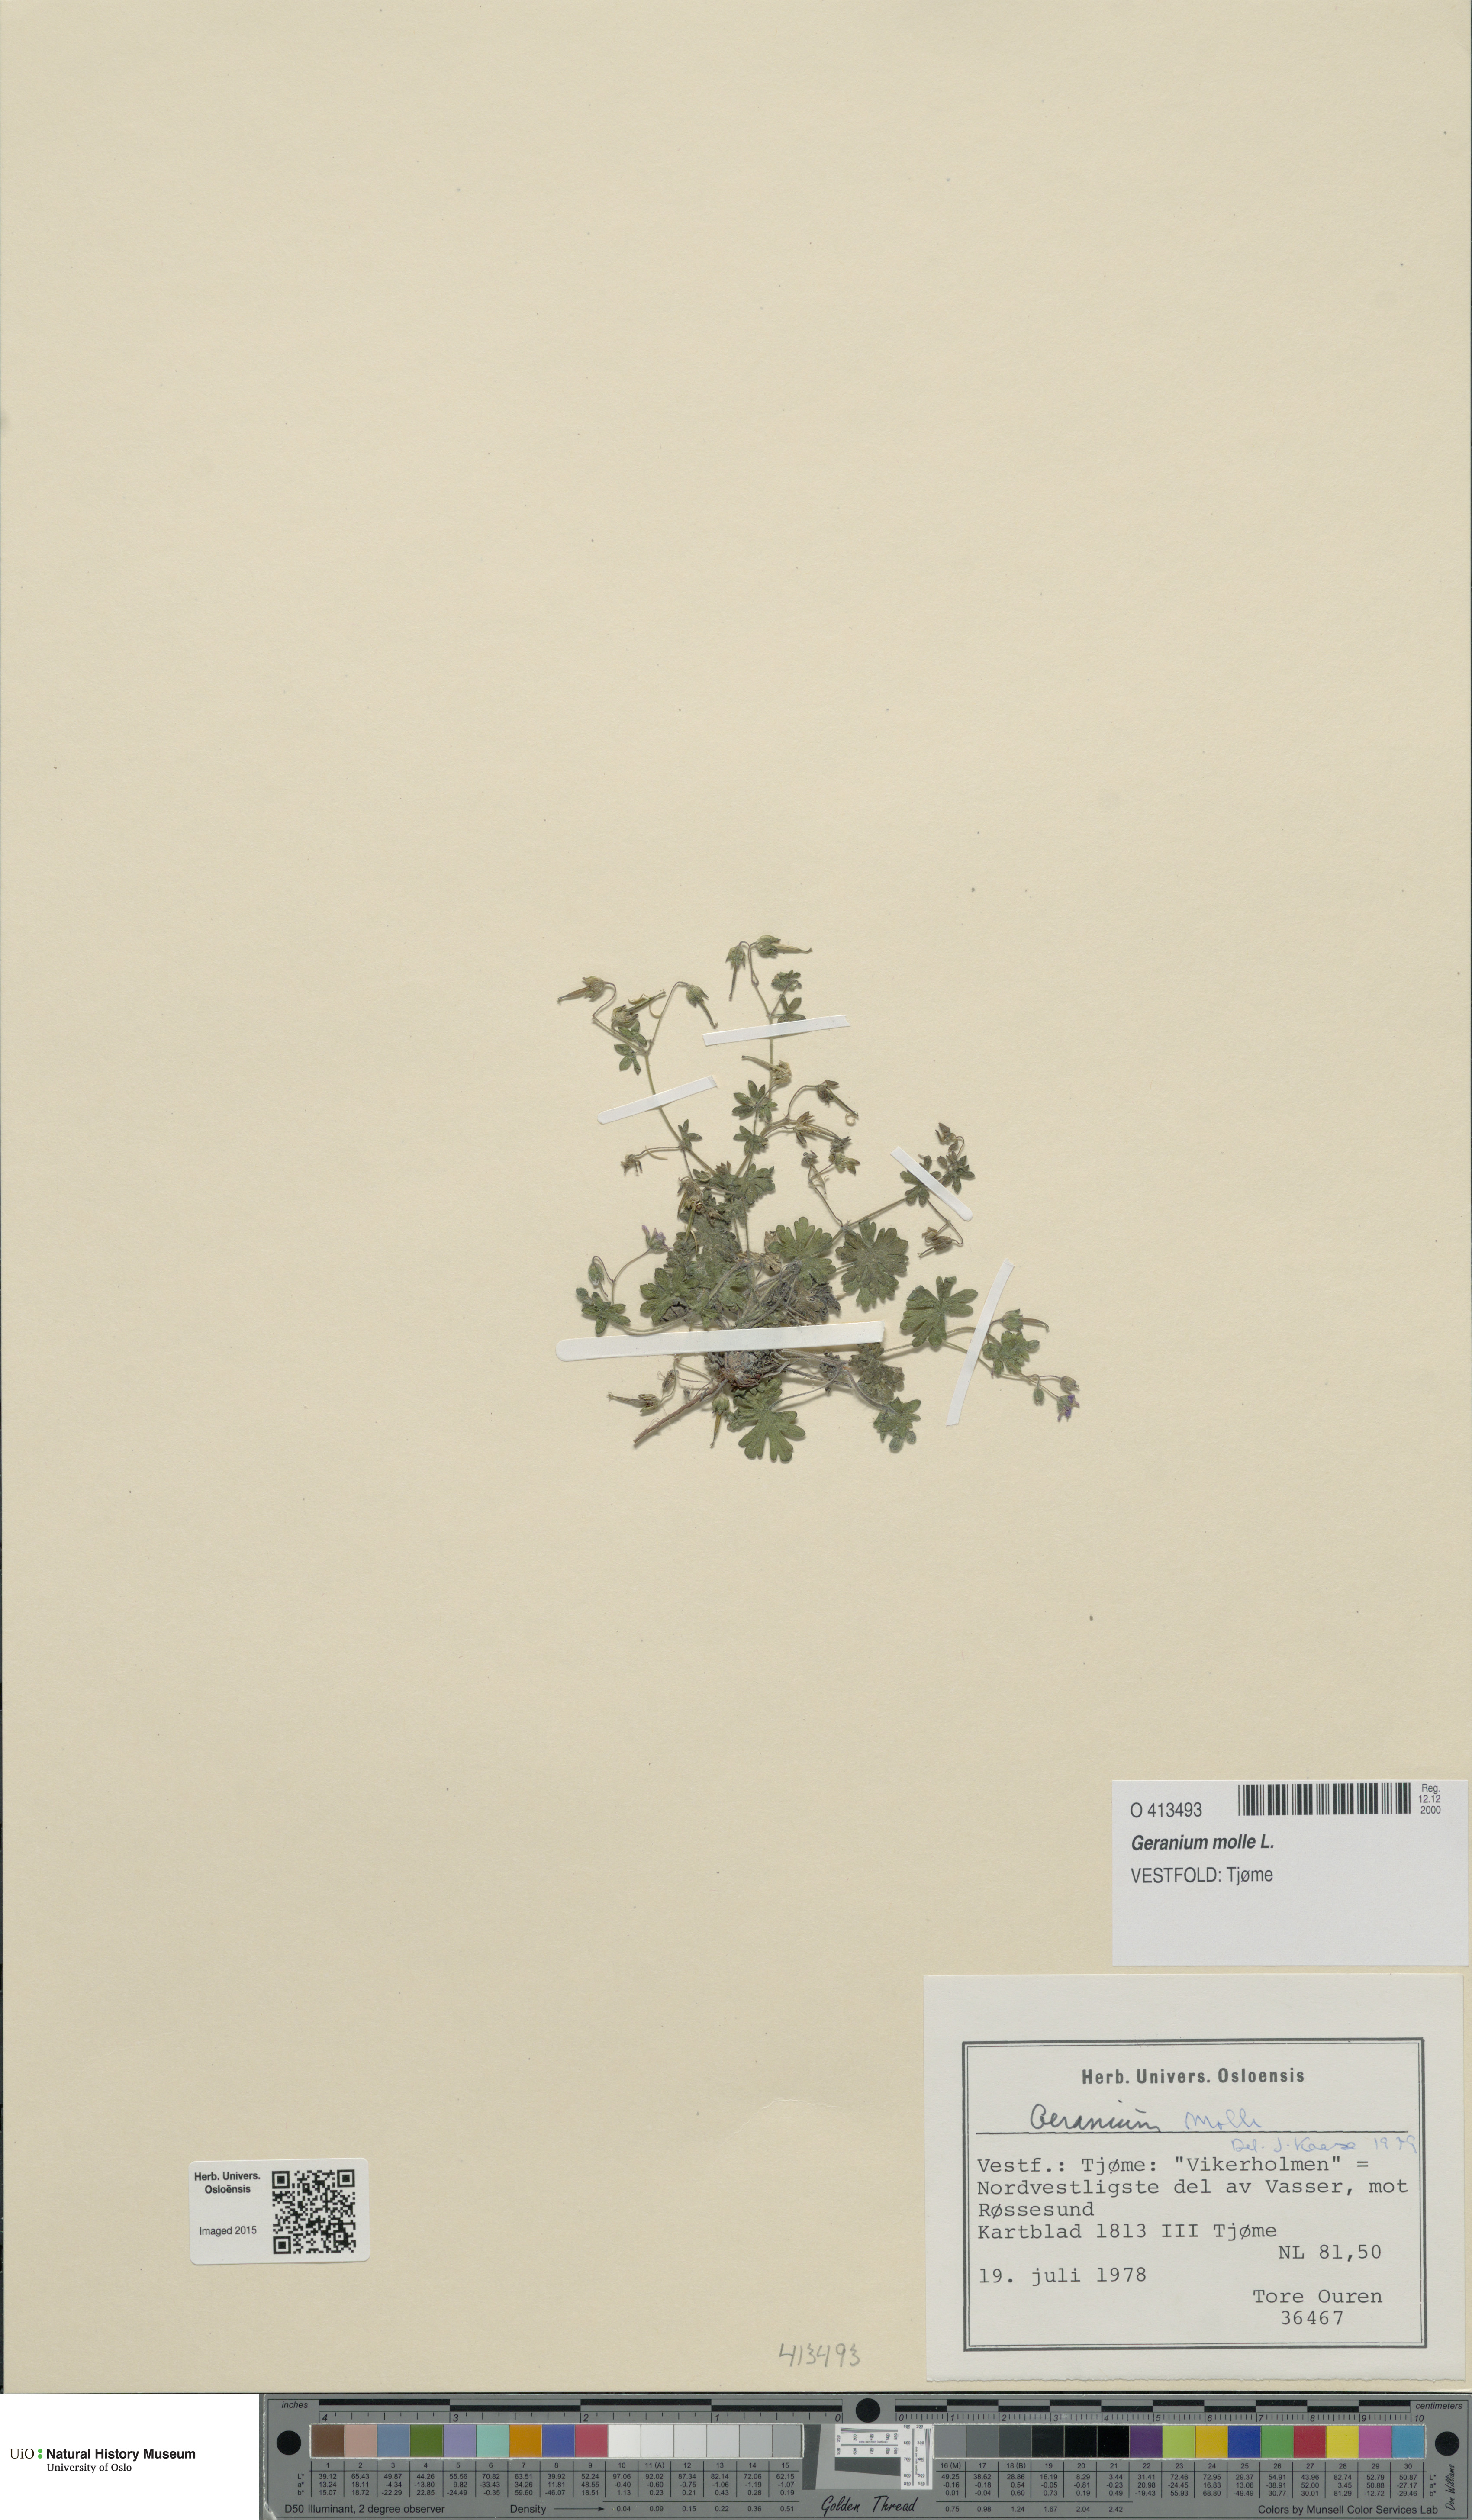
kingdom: Plantae
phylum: Tracheophyta
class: Magnoliopsida
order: Geraniales
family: Geraniaceae
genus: Geranium
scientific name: Geranium molle
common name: Dove's-foot crane's-bill
